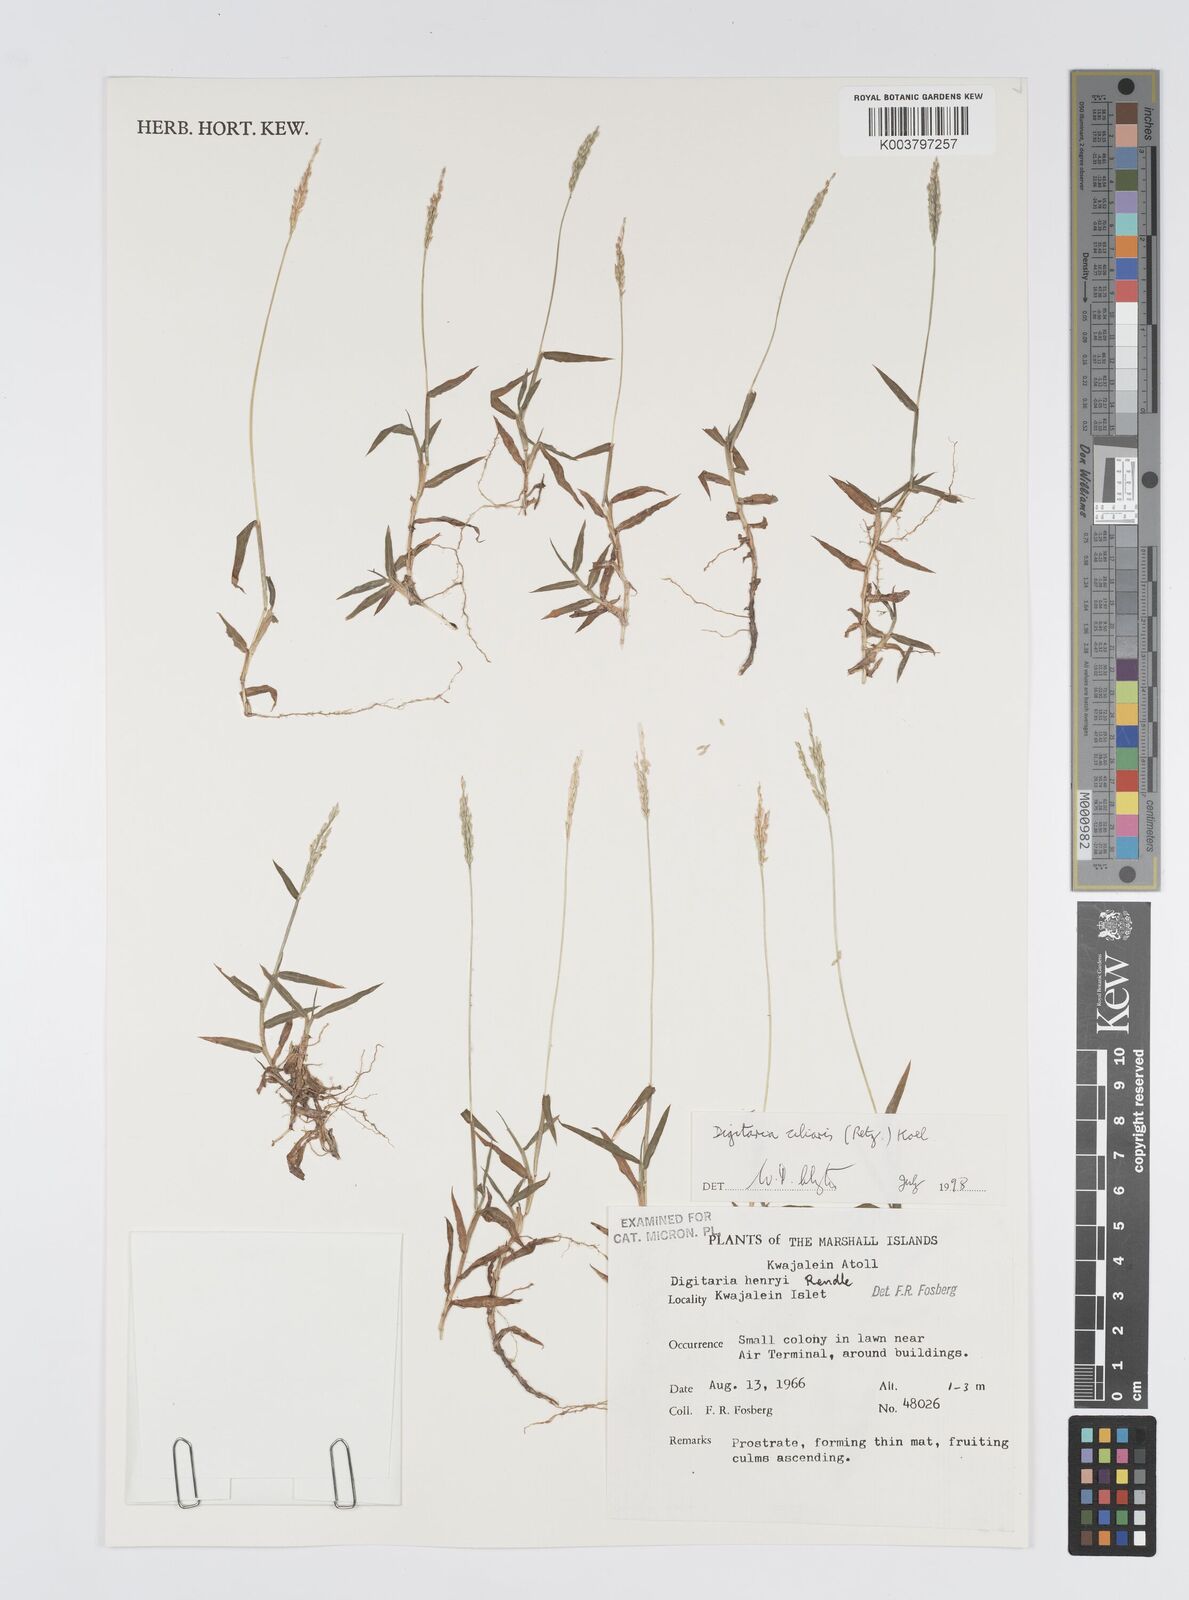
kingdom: Plantae
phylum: Tracheophyta
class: Liliopsida
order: Poales
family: Poaceae
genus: Digitaria
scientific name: Digitaria ciliaris
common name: Tropical finger-grass
